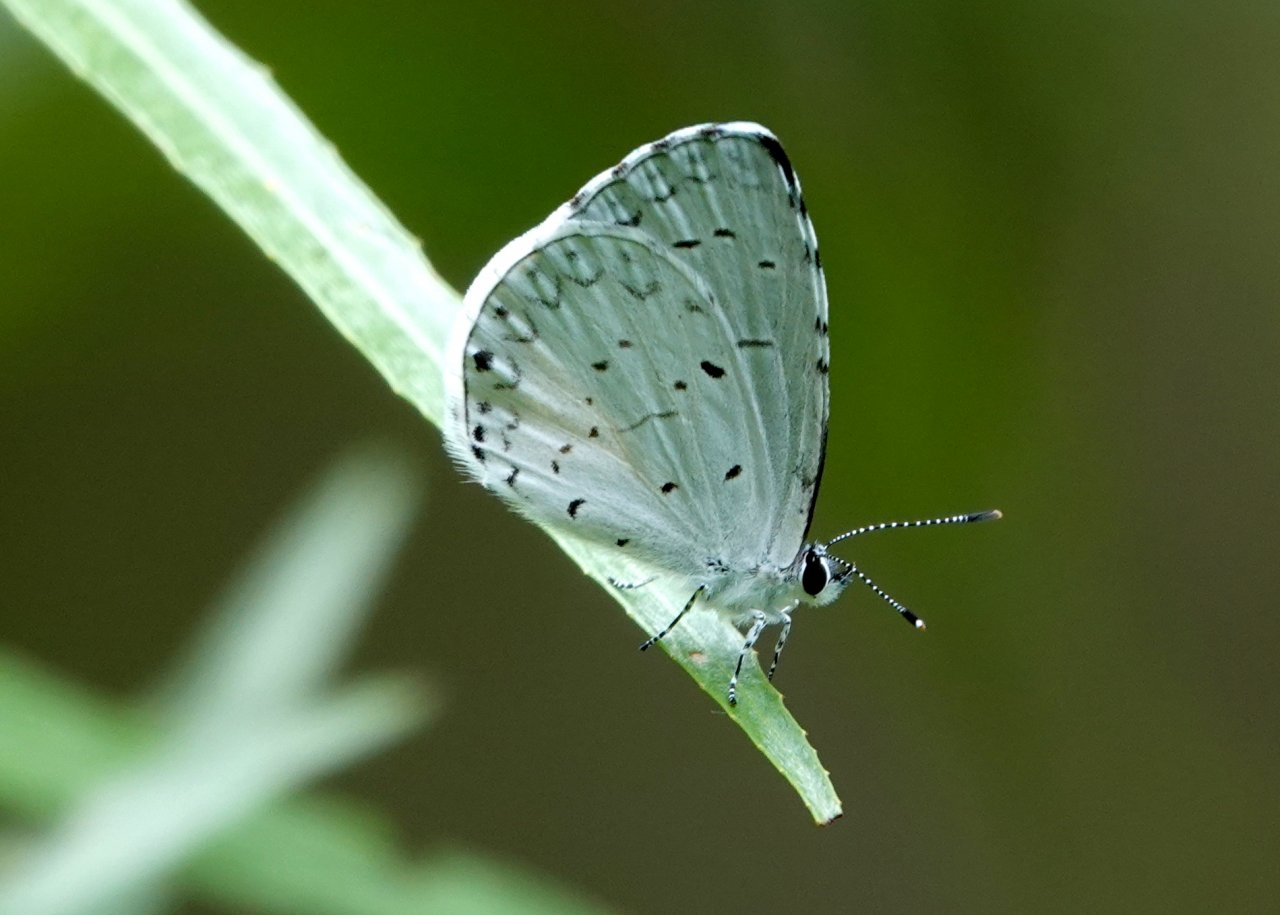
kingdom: Animalia
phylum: Arthropoda
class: Insecta
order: Lepidoptera
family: Lycaenidae
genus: Cyaniris
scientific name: Cyaniris neglecta
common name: Summer Azure
